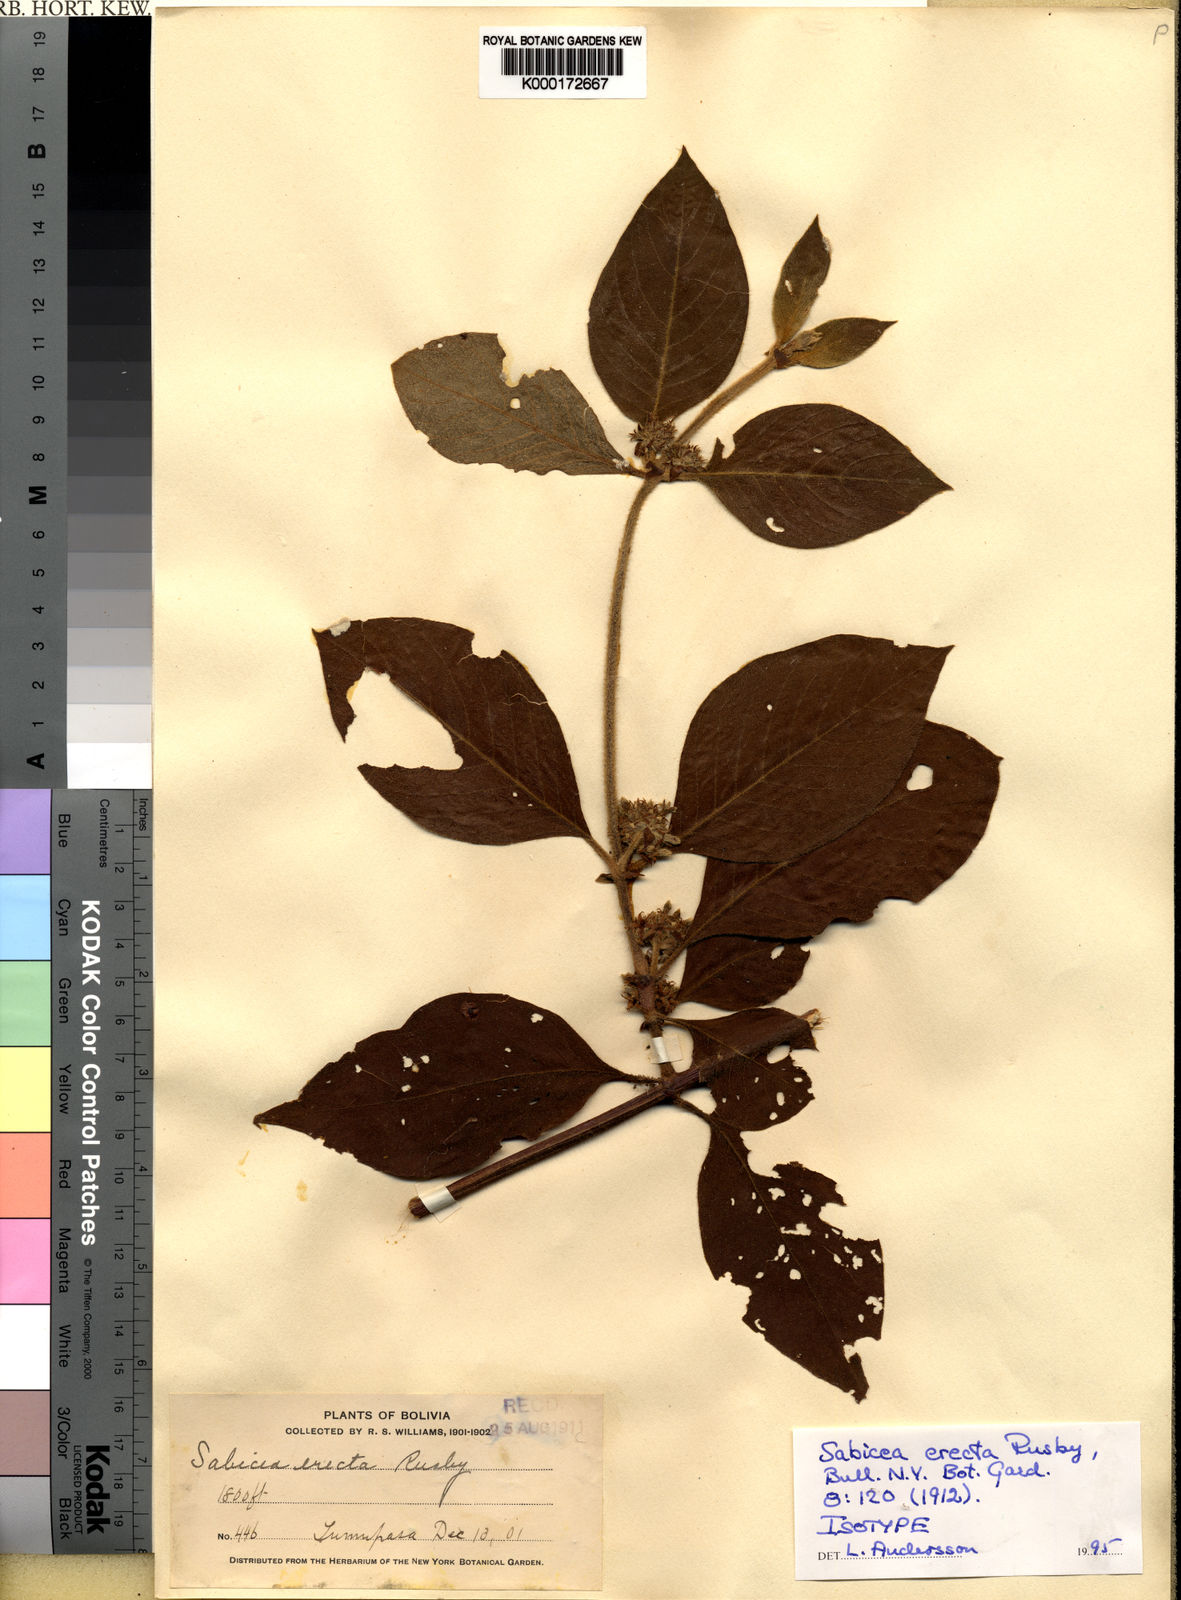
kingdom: Plantae
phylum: Tracheophyta
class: Magnoliopsida
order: Gentianales
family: Rubiaceae
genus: Sabicea
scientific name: Sabicea erecta
